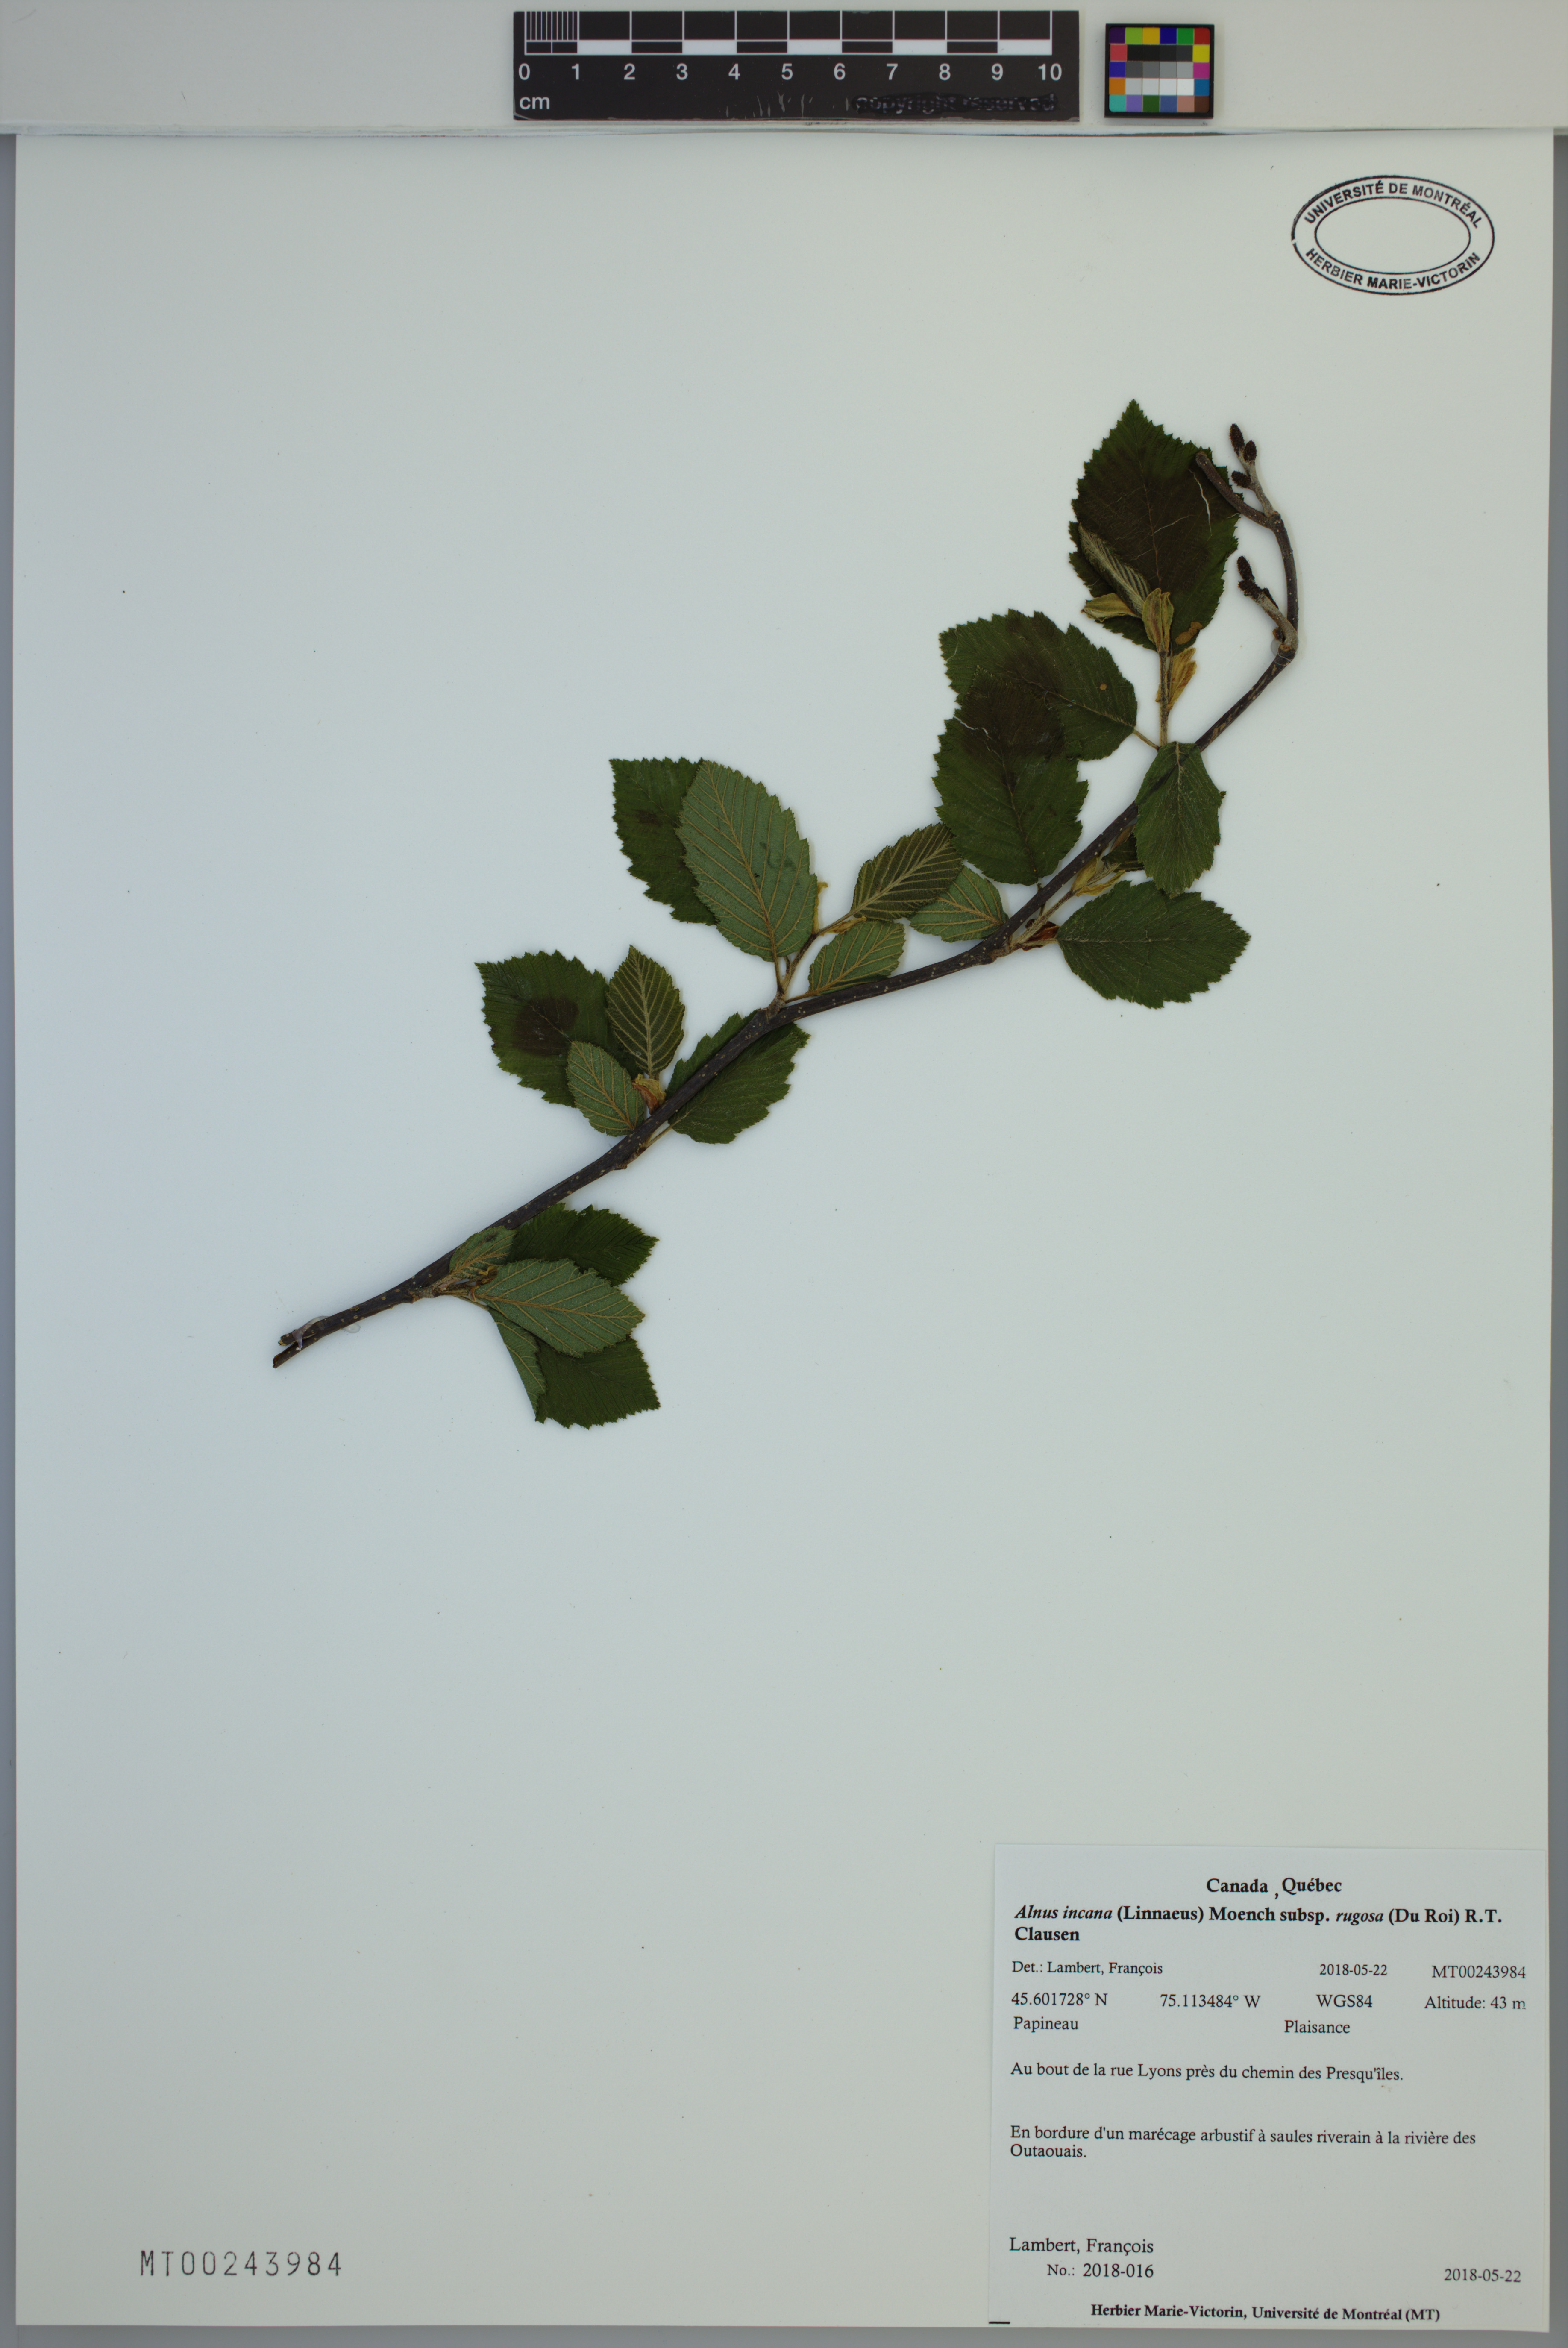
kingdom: Plantae
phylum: Tracheophyta
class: Magnoliopsida
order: Fagales
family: Betulaceae
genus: Alnus
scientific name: Alnus incana
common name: Grey alder
